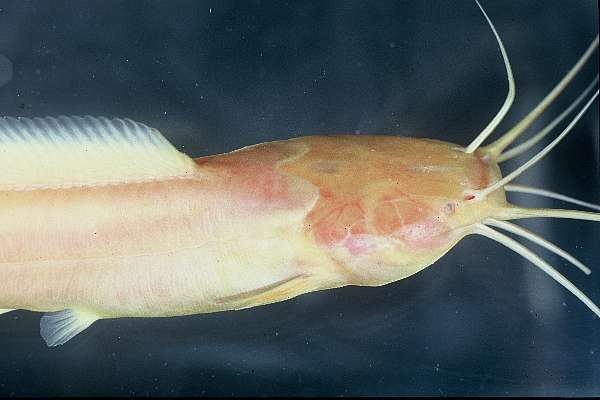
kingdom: Animalia
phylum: Chordata
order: Siluriformes
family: Clariidae
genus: Clarias
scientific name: Clarias cavernicola
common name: Cave catfish
